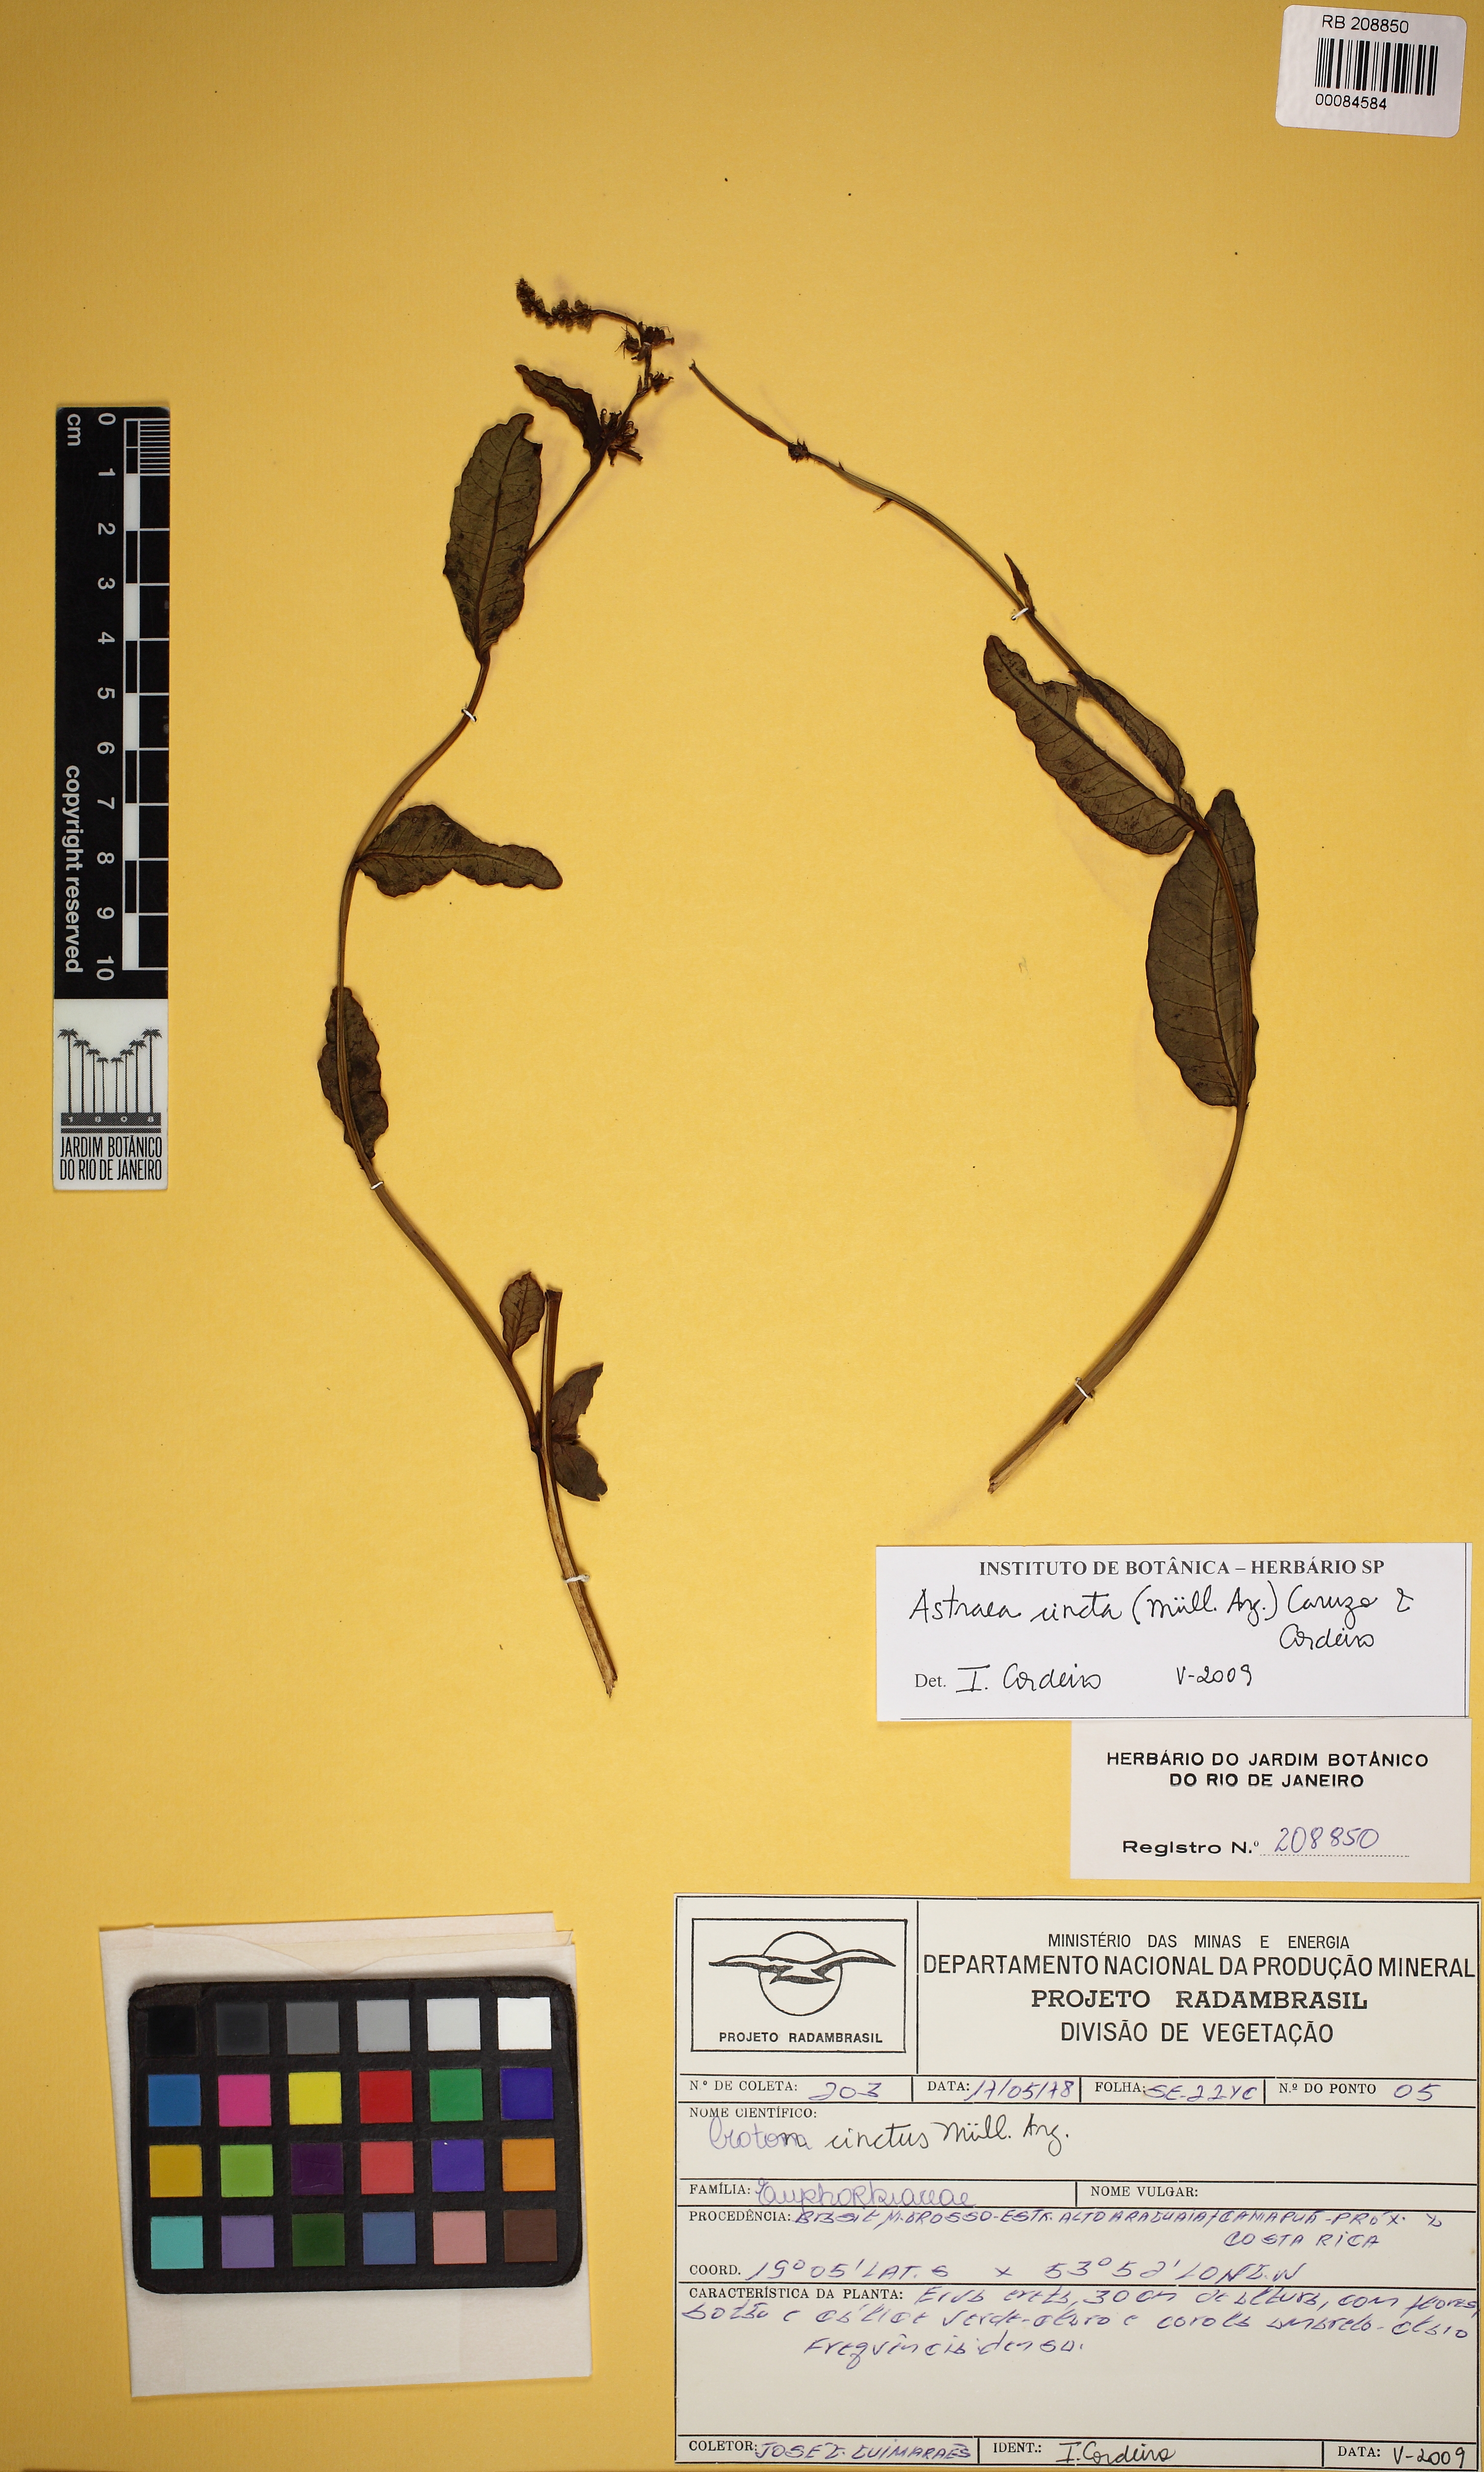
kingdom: Plantae
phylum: Tracheophyta
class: Magnoliopsida
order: Malpighiales
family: Euphorbiaceae
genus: Astraea
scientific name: Astraea cincta
